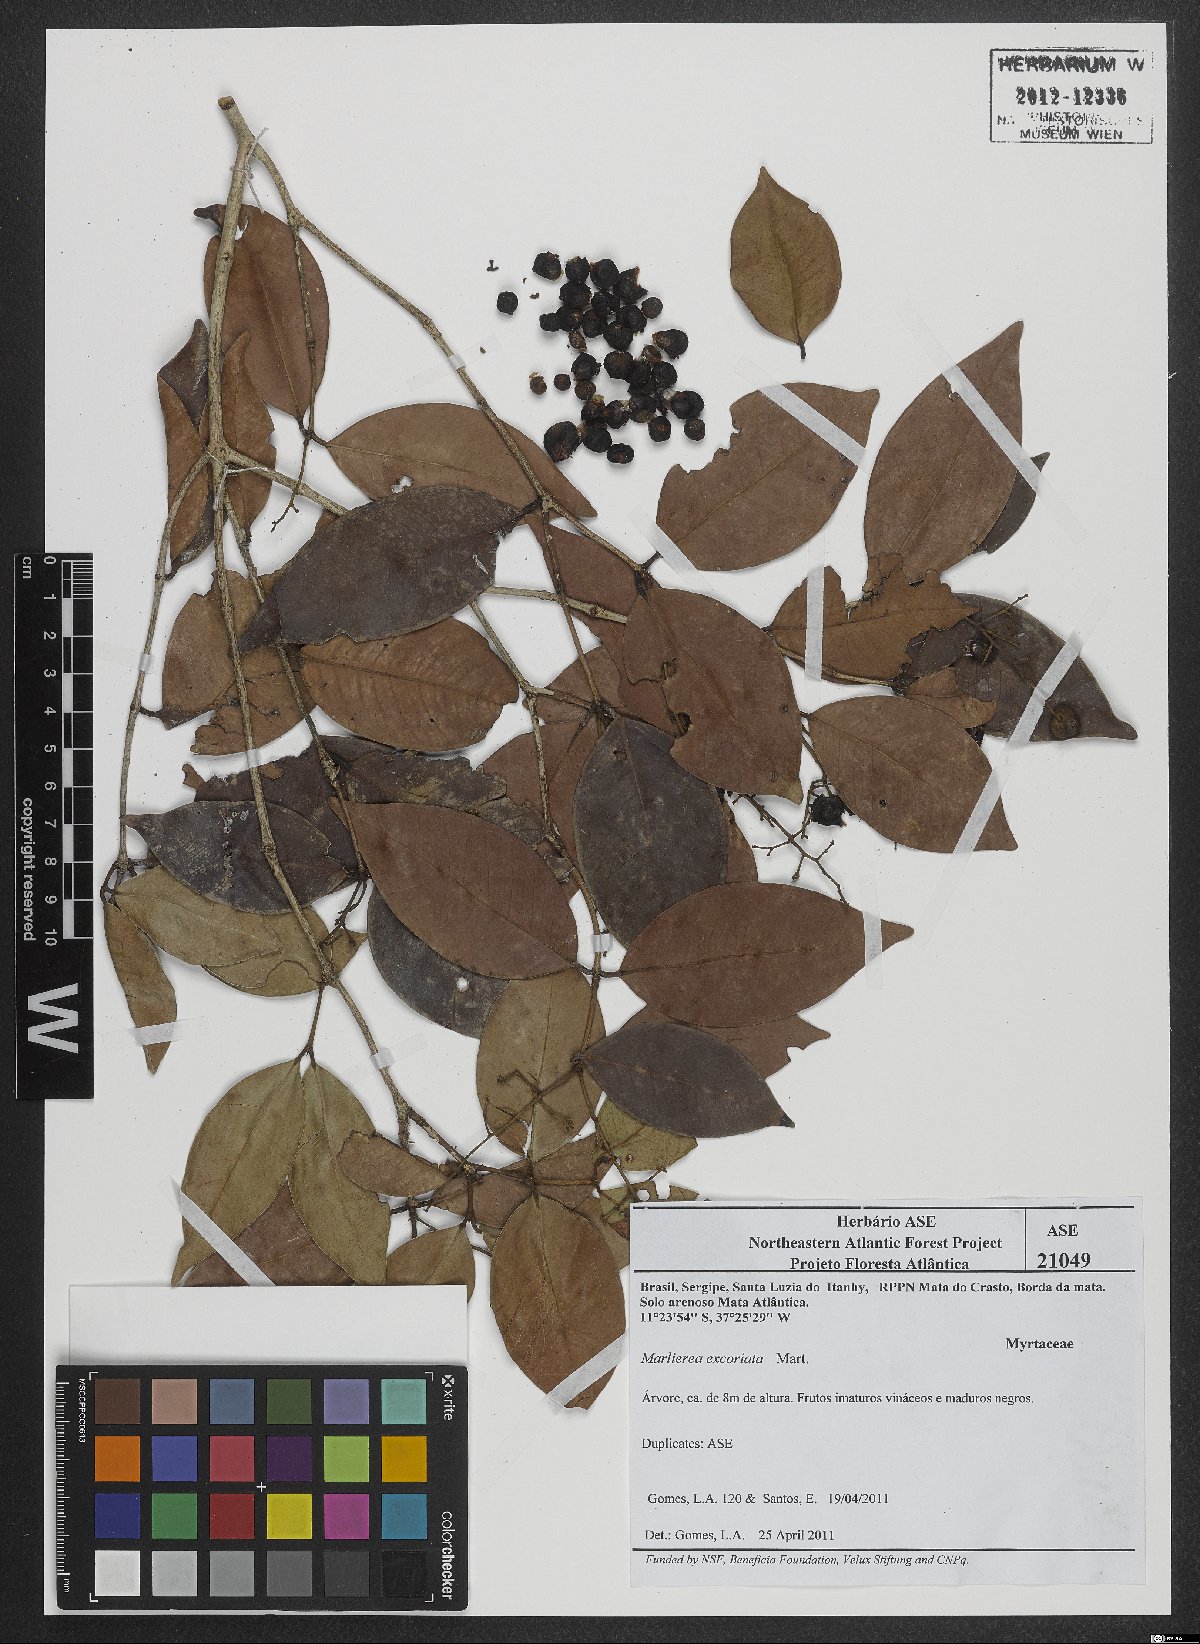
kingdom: Plantae
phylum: Tracheophyta
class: Magnoliopsida
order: Myrtales
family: Myrtaceae
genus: Myrcia
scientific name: Myrcia excoriata
